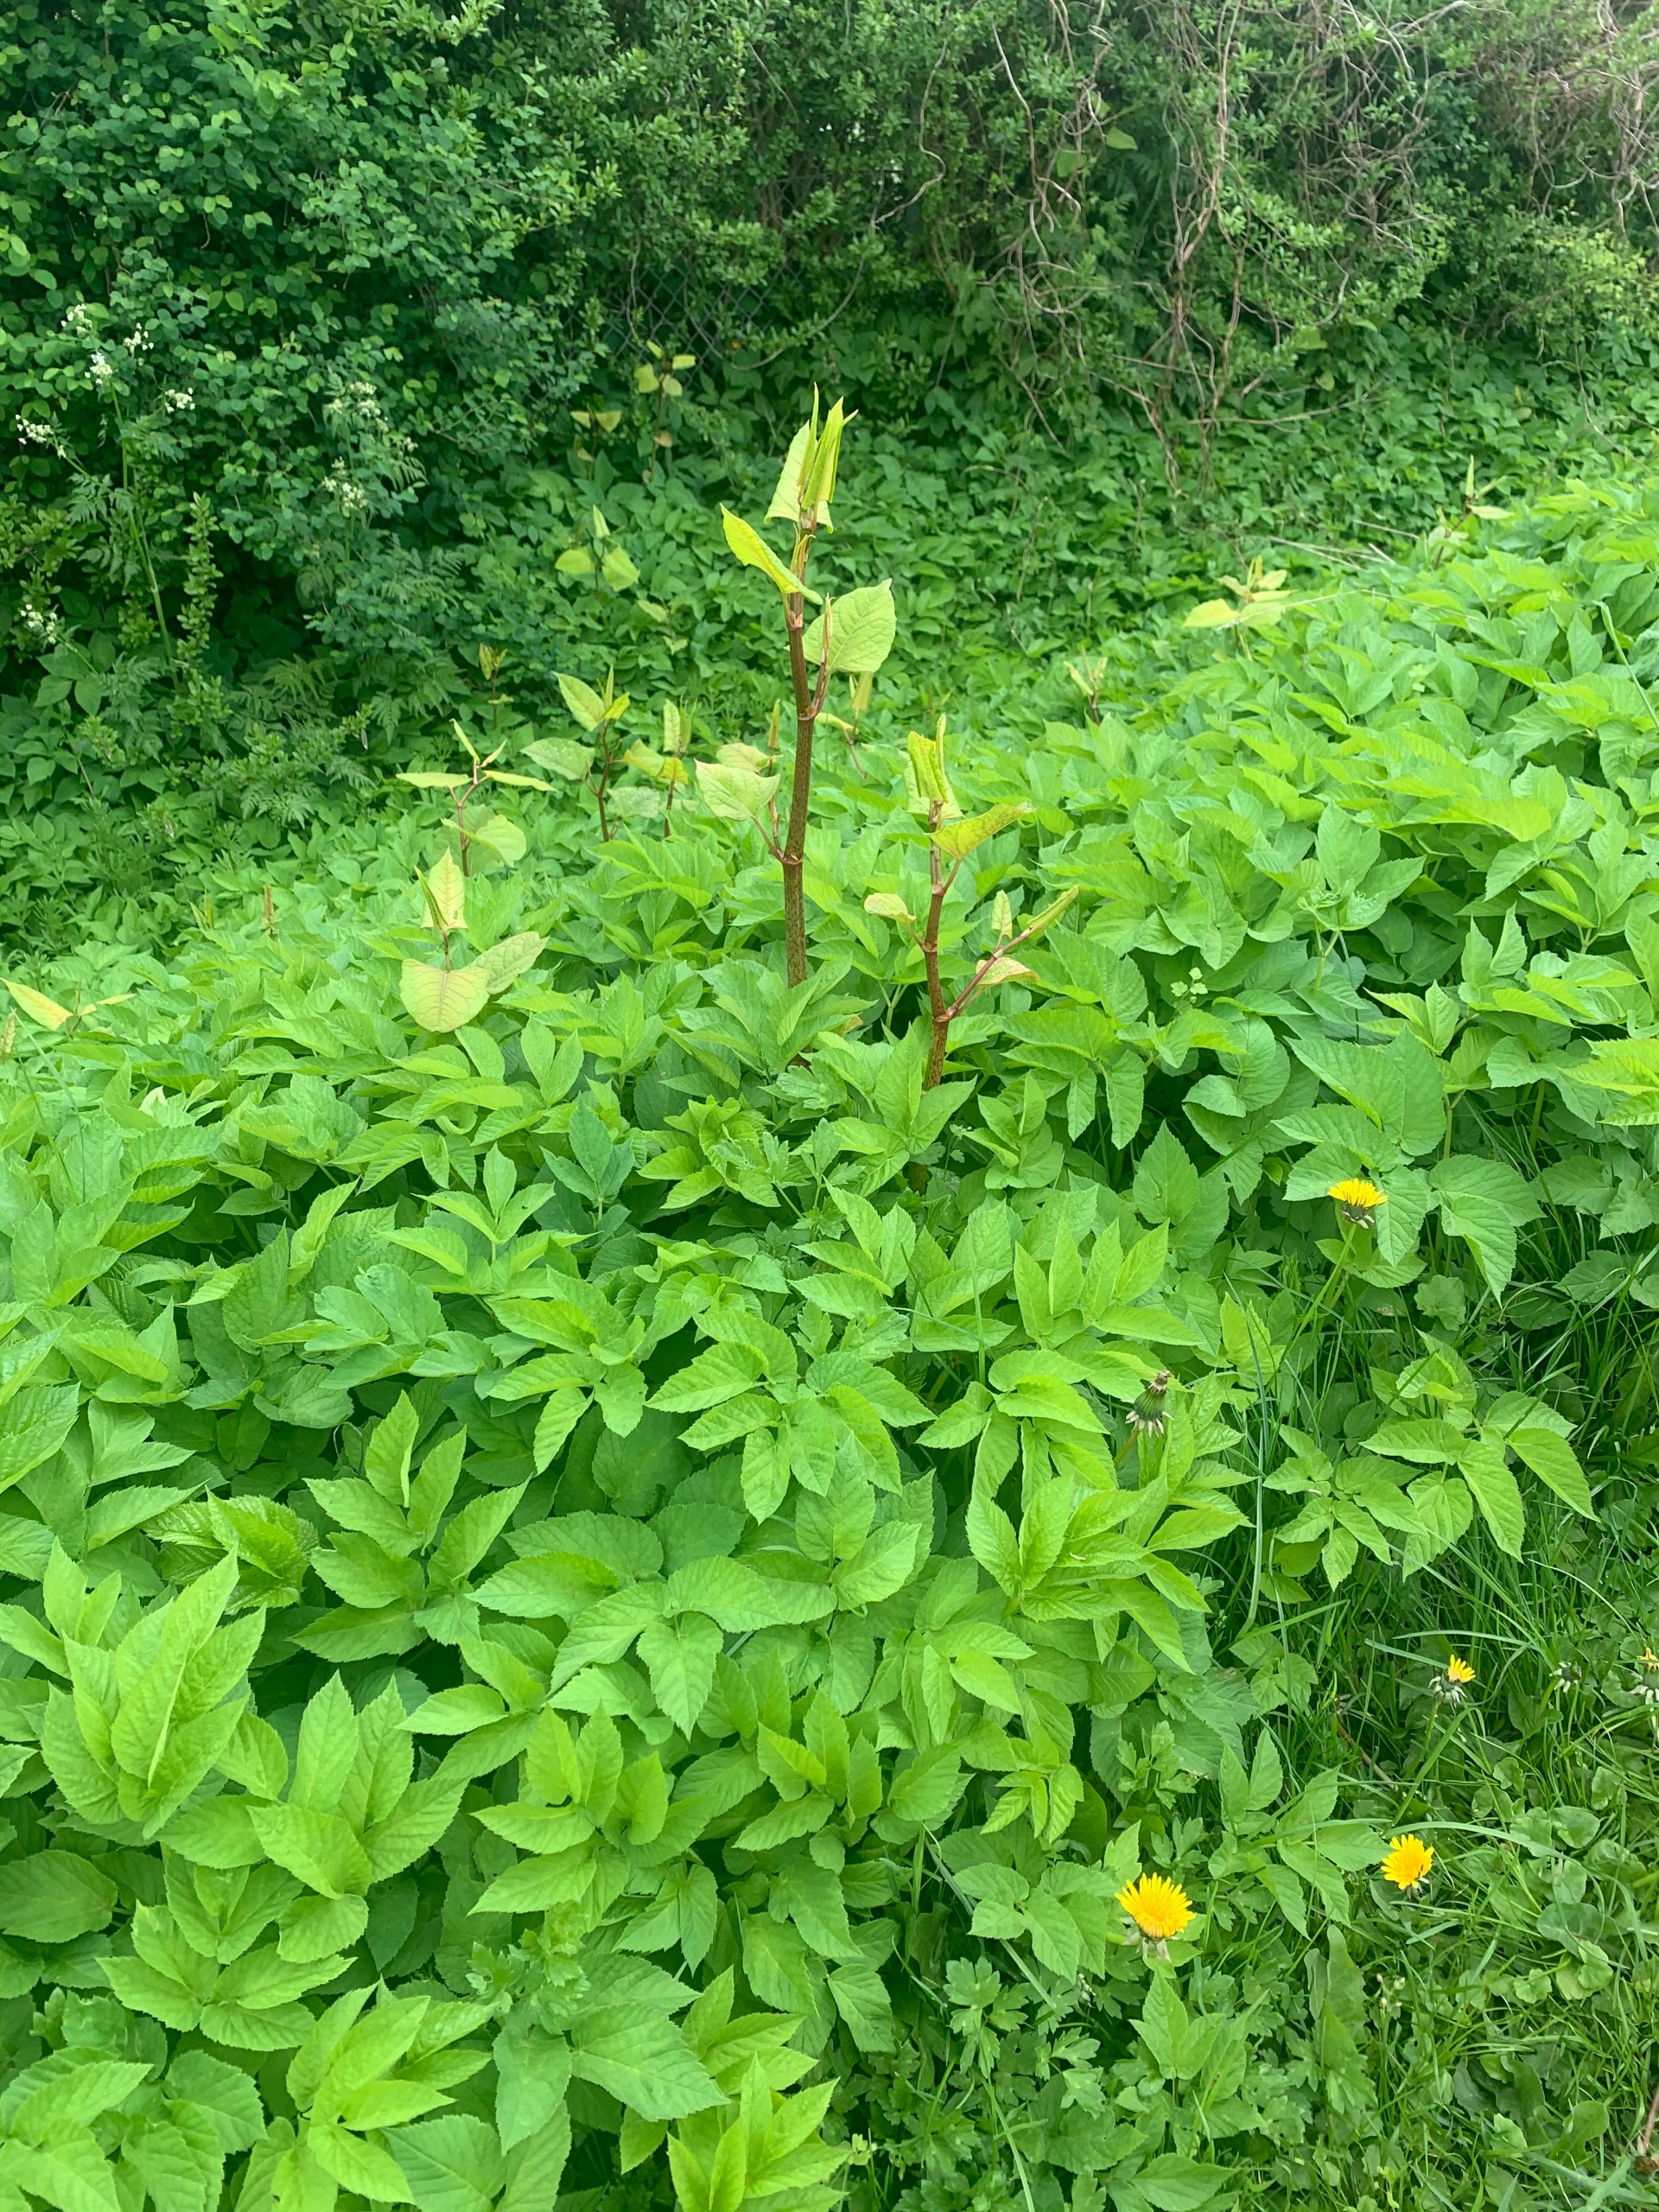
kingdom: Plantae
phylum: Tracheophyta
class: Magnoliopsida
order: Caryophyllales
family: Polygonaceae
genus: Reynoutria
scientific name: Reynoutria japonica
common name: Japan-pileurt
